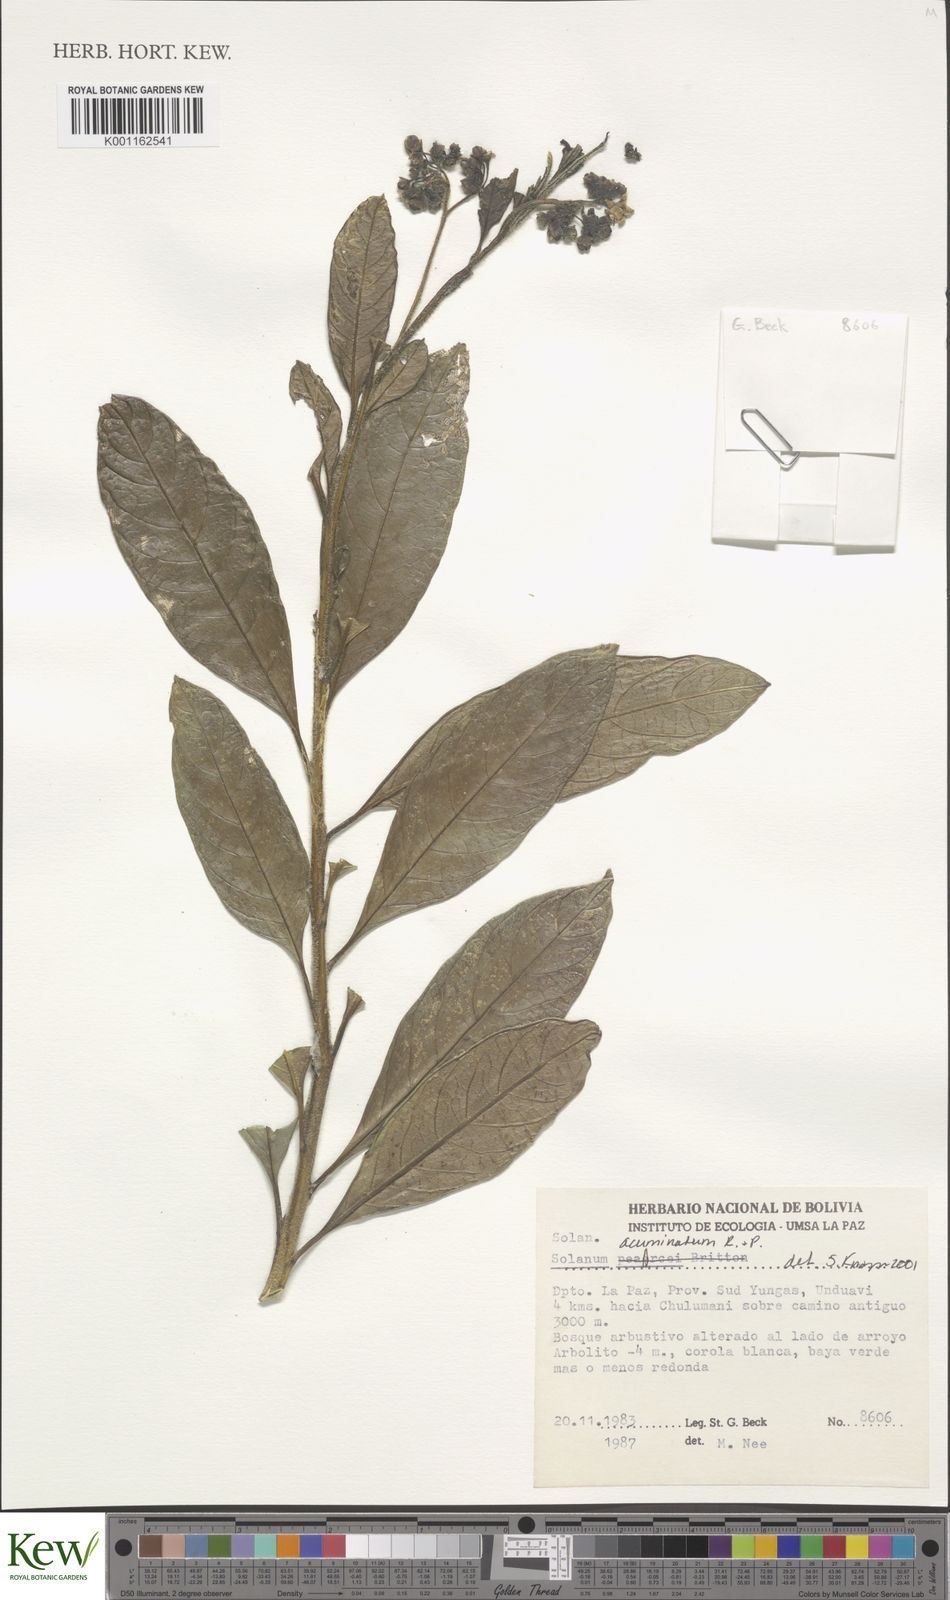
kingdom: Plantae
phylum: Tracheophyta
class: Magnoliopsida
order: Solanales
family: Solanaceae
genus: Solanum
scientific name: Solanum acuminatum
